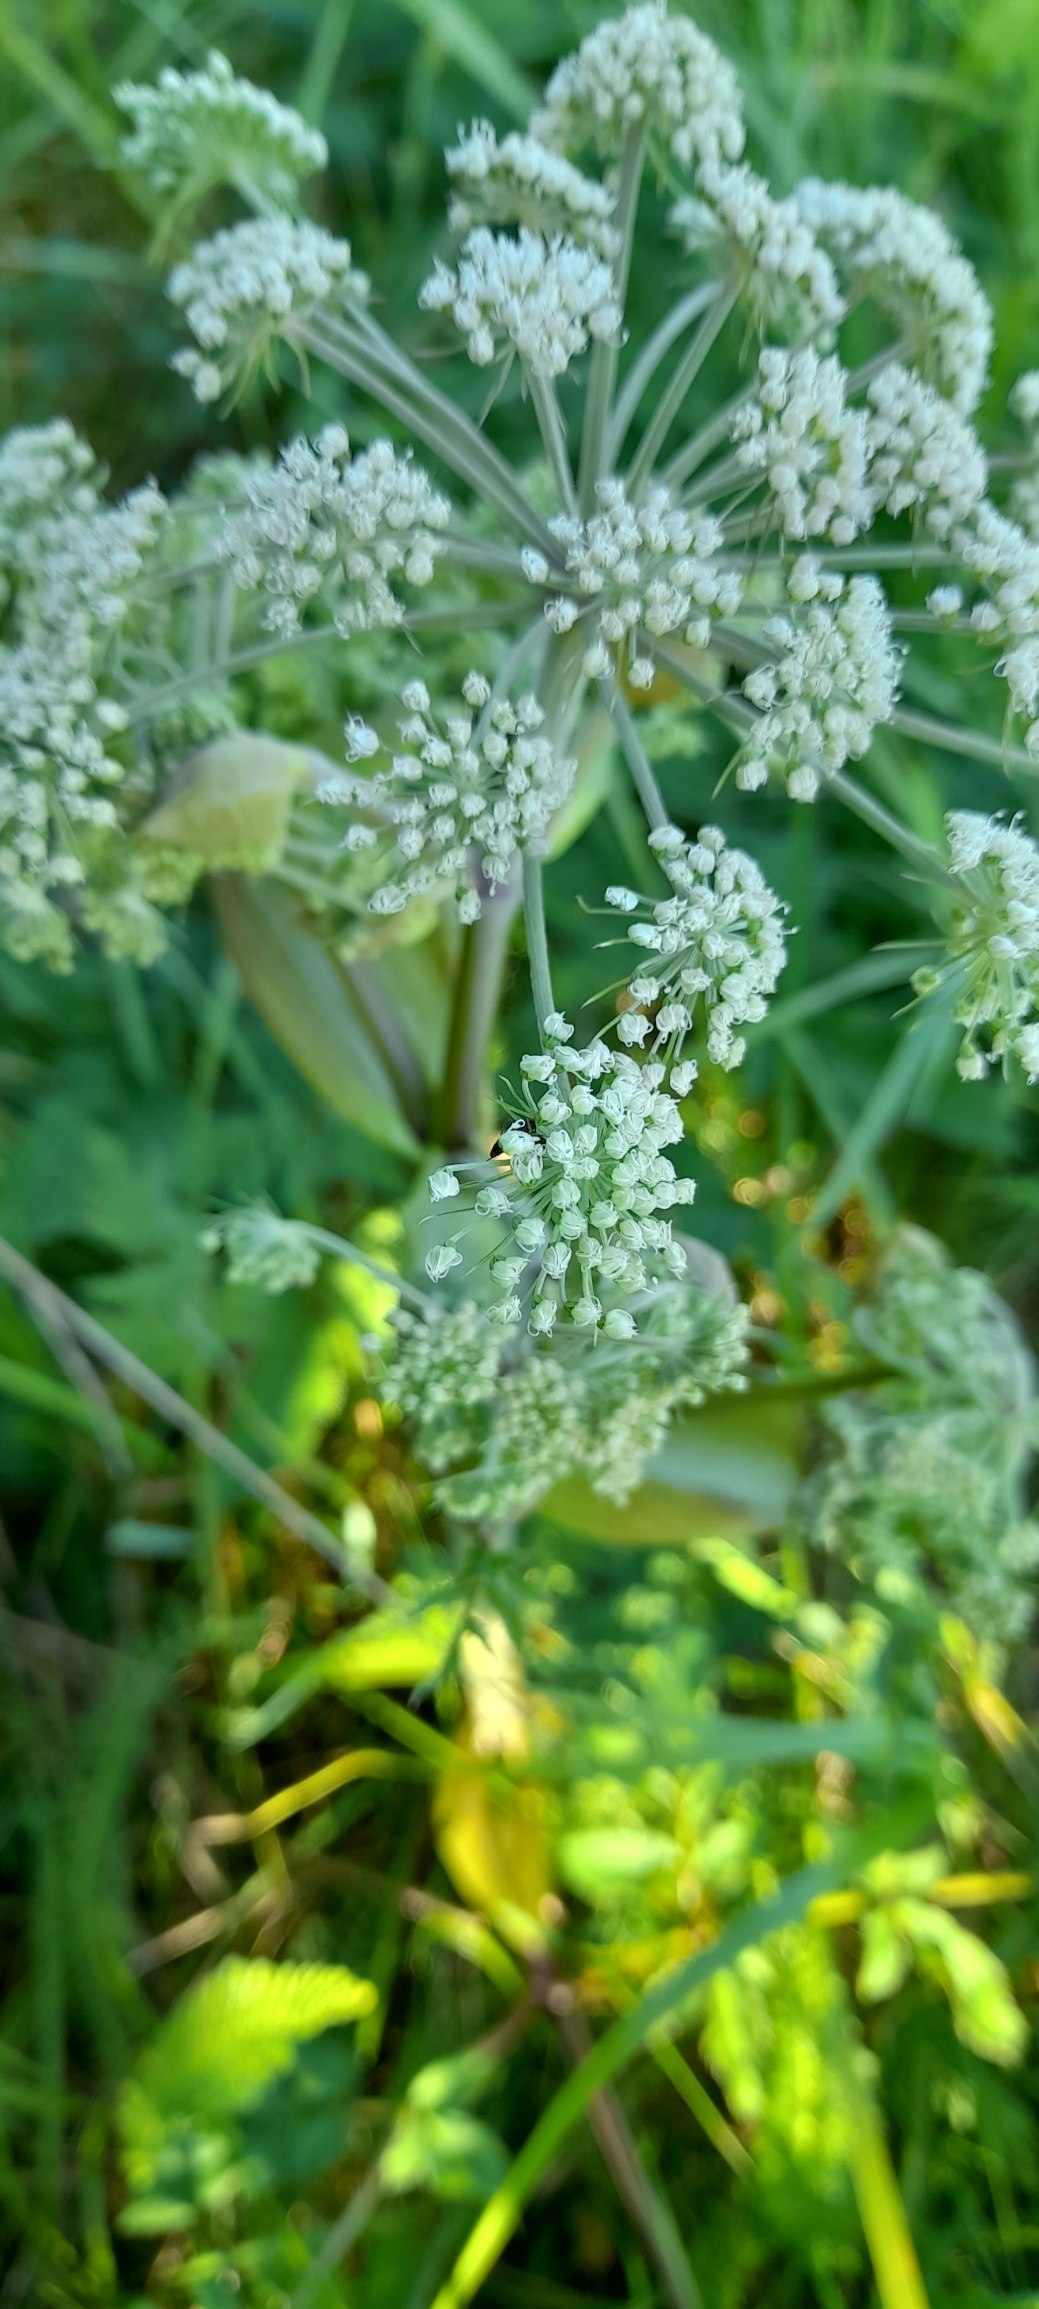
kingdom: Plantae
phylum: Tracheophyta
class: Magnoliopsida
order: Apiales
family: Apiaceae
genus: Angelica
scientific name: Angelica sylvestris
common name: Angelik
